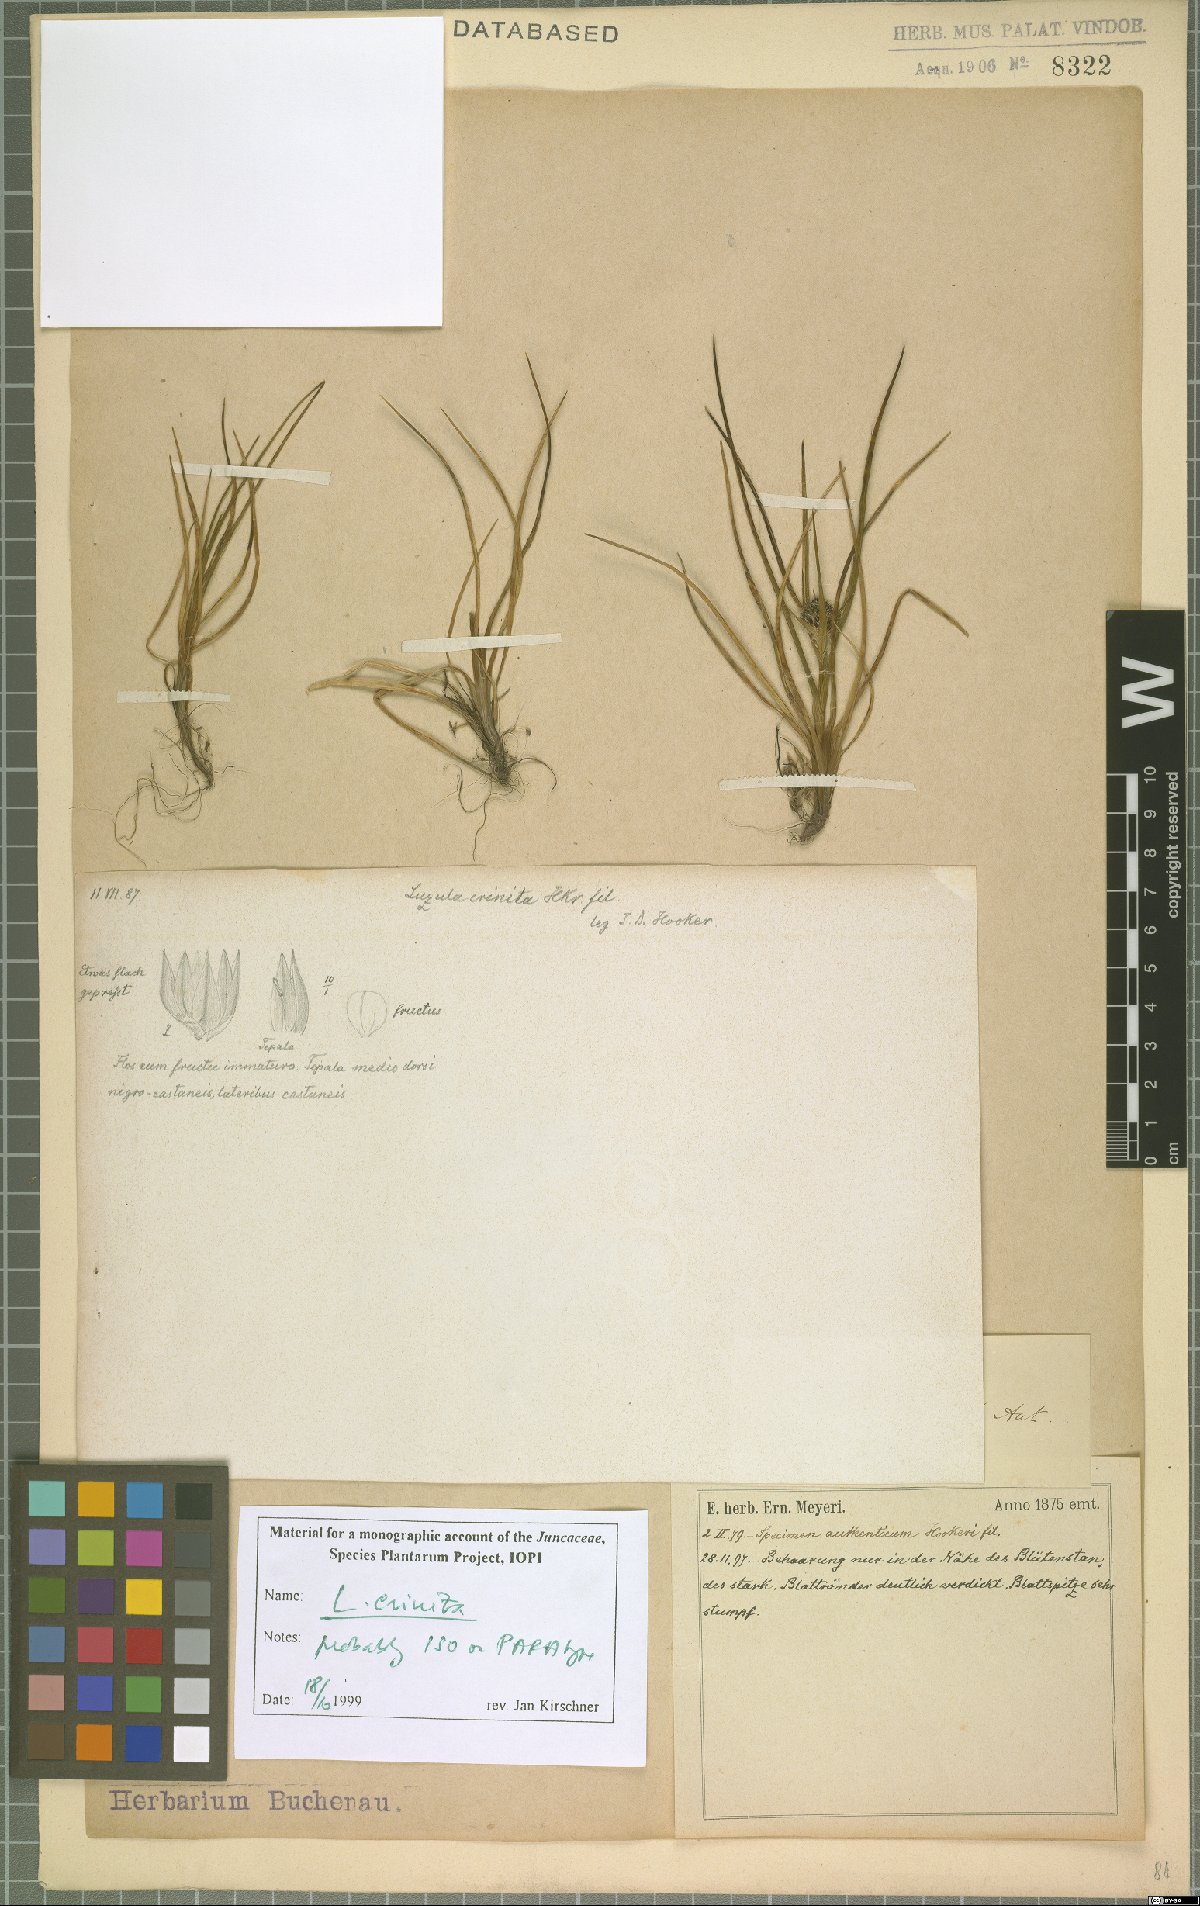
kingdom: Plantae
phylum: Tracheophyta
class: Liliopsida
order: Poales
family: Juncaceae
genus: Luzula
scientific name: Luzula crinita
